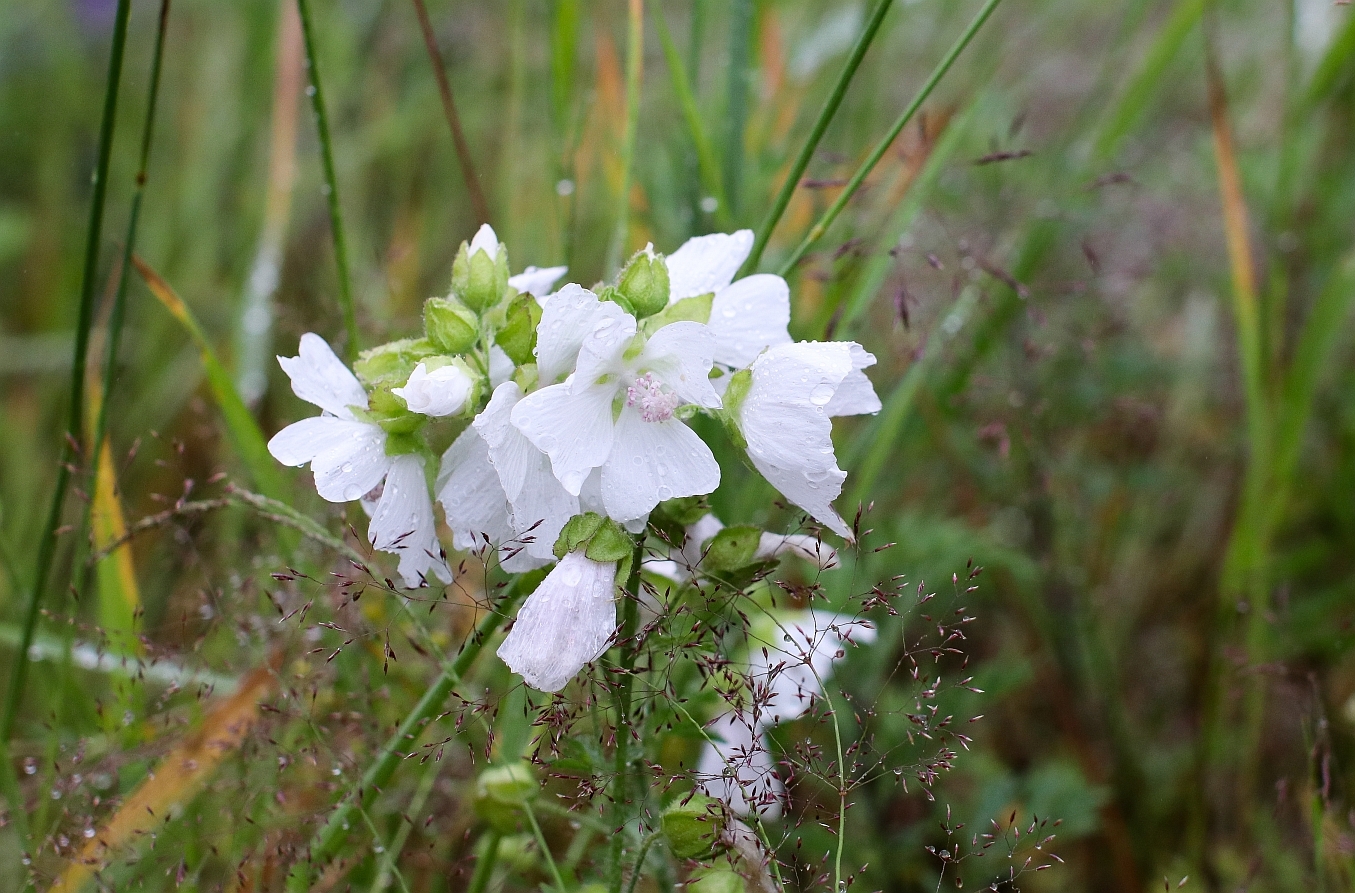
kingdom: Plantae
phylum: Tracheophyta
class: Magnoliopsida
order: Malvales
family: Malvaceae
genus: Malva
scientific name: Malva moschata
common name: Musk mallow
